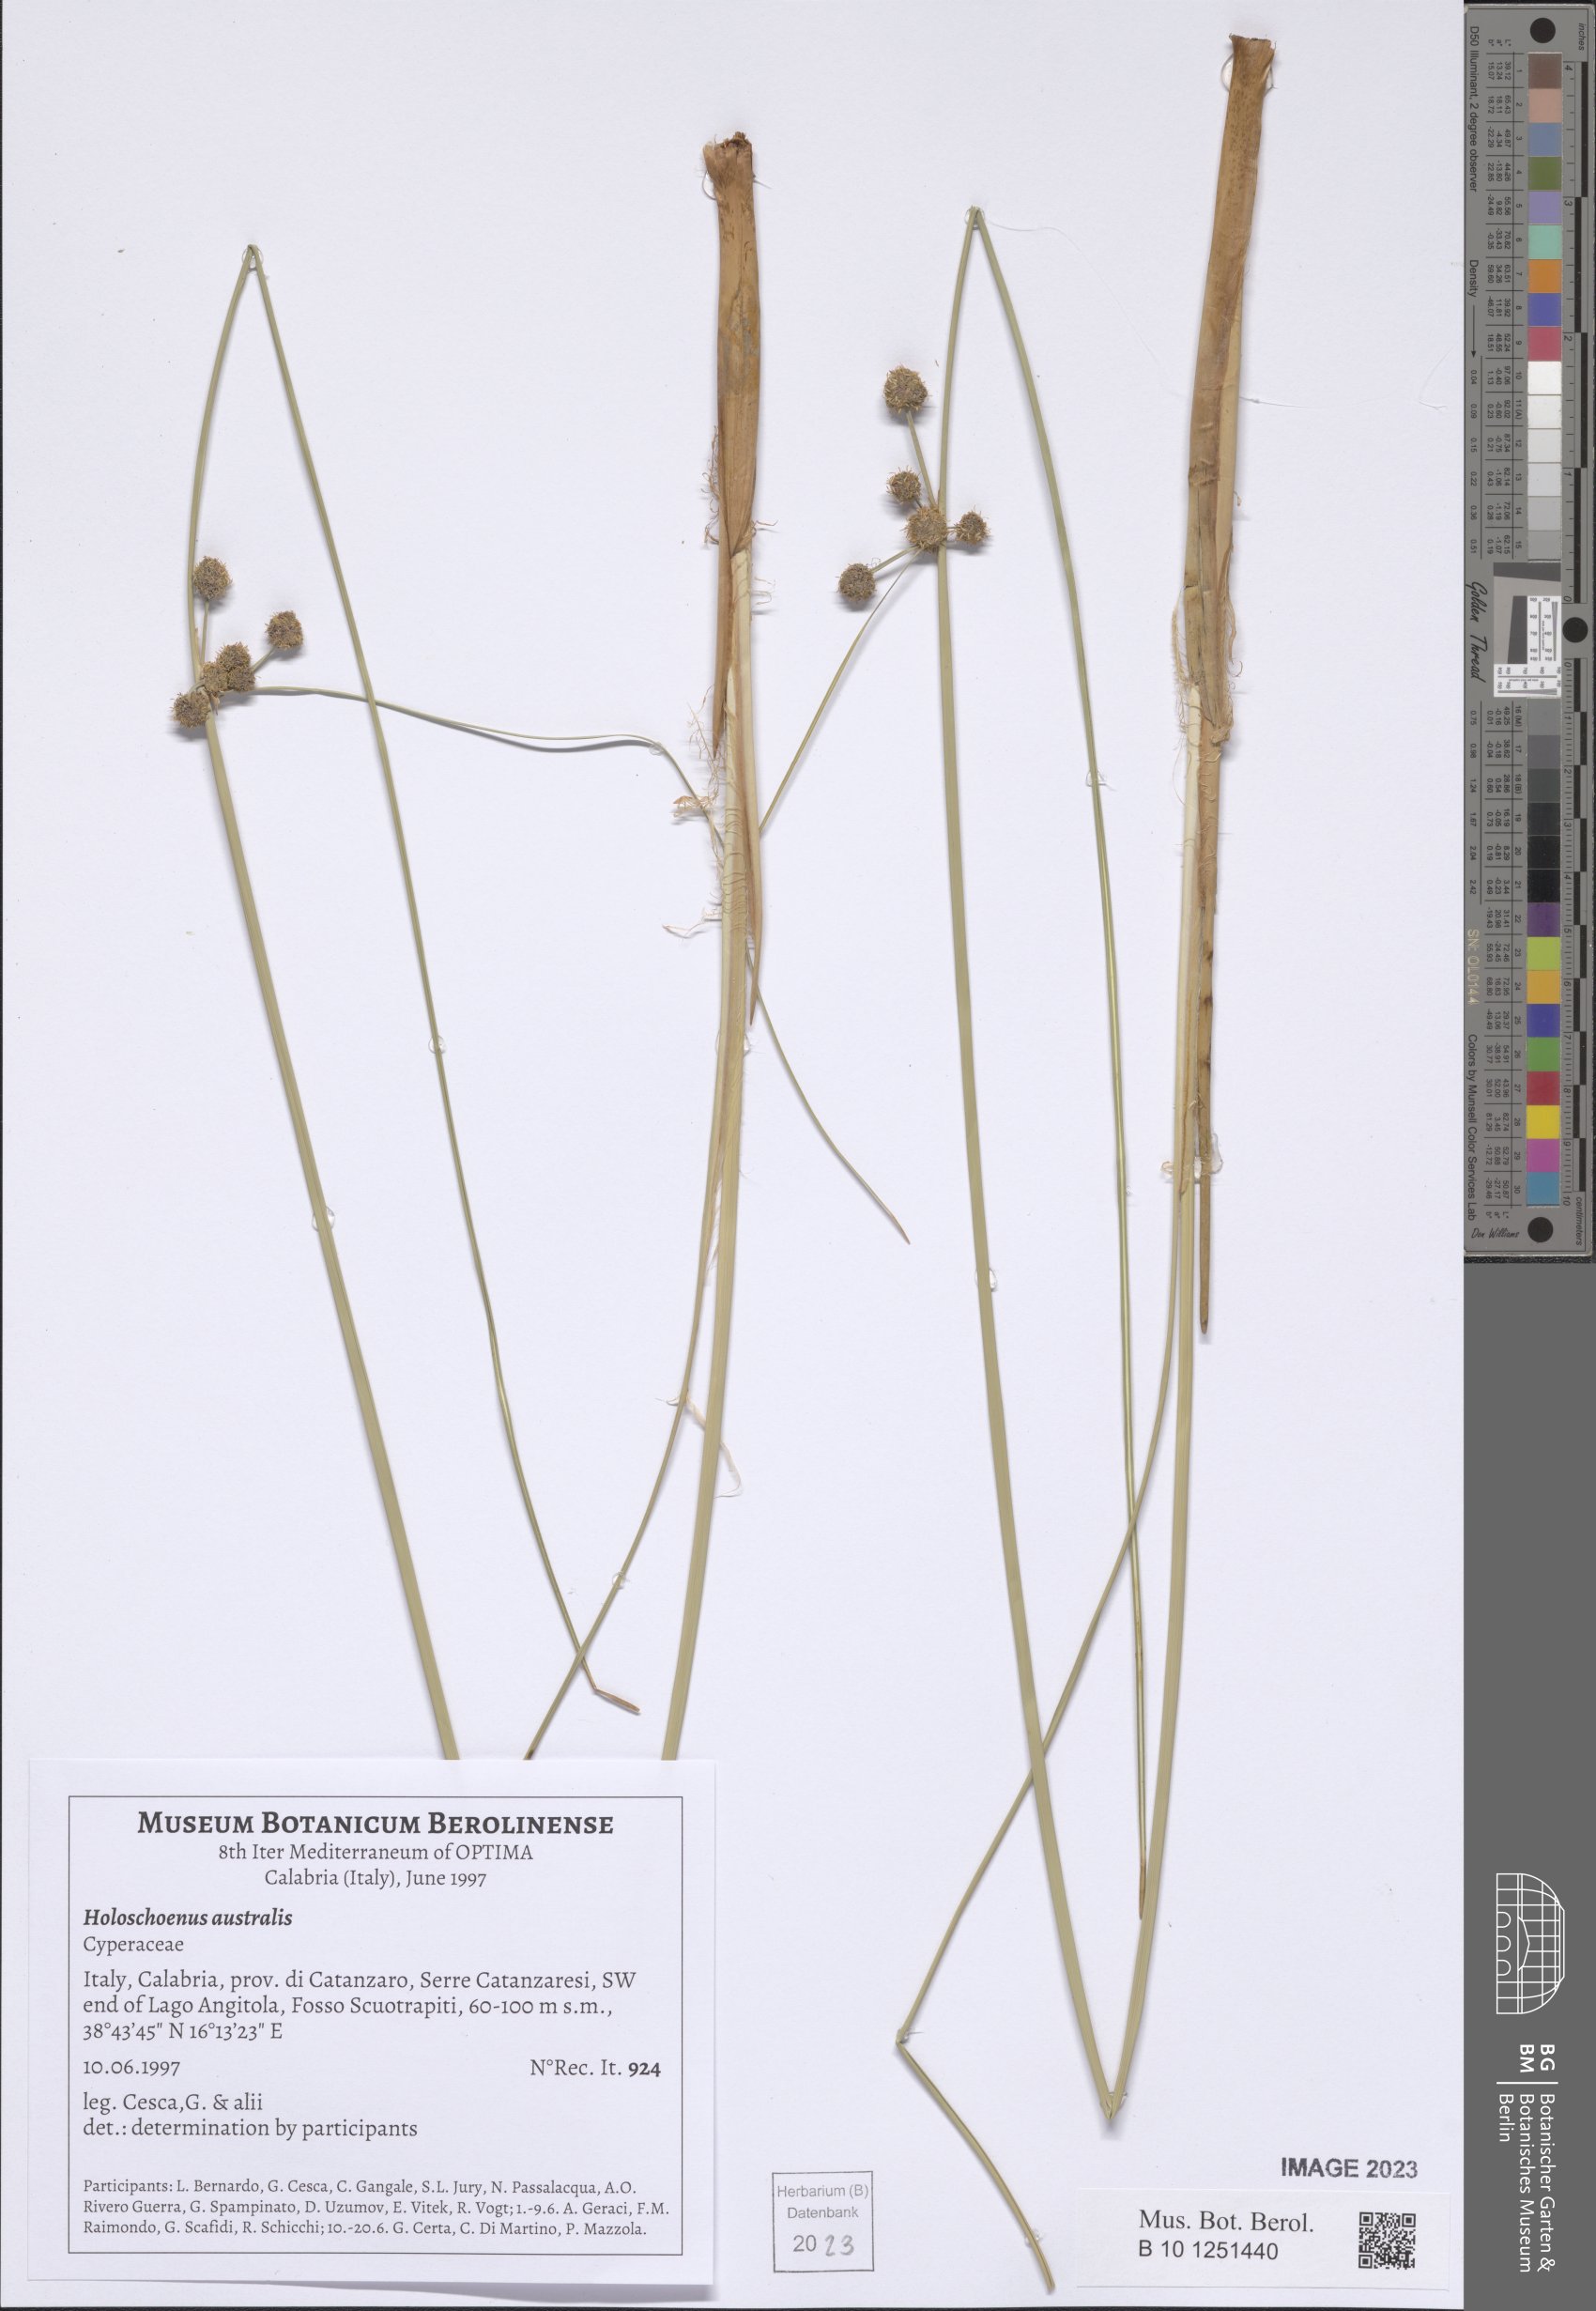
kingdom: Plantae
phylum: Tracheophyta
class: Liliopsida
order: Poales
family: Cyperaceae
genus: Scirpoides
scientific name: Scirpoides holoschoenus
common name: Round-headed club-rush
